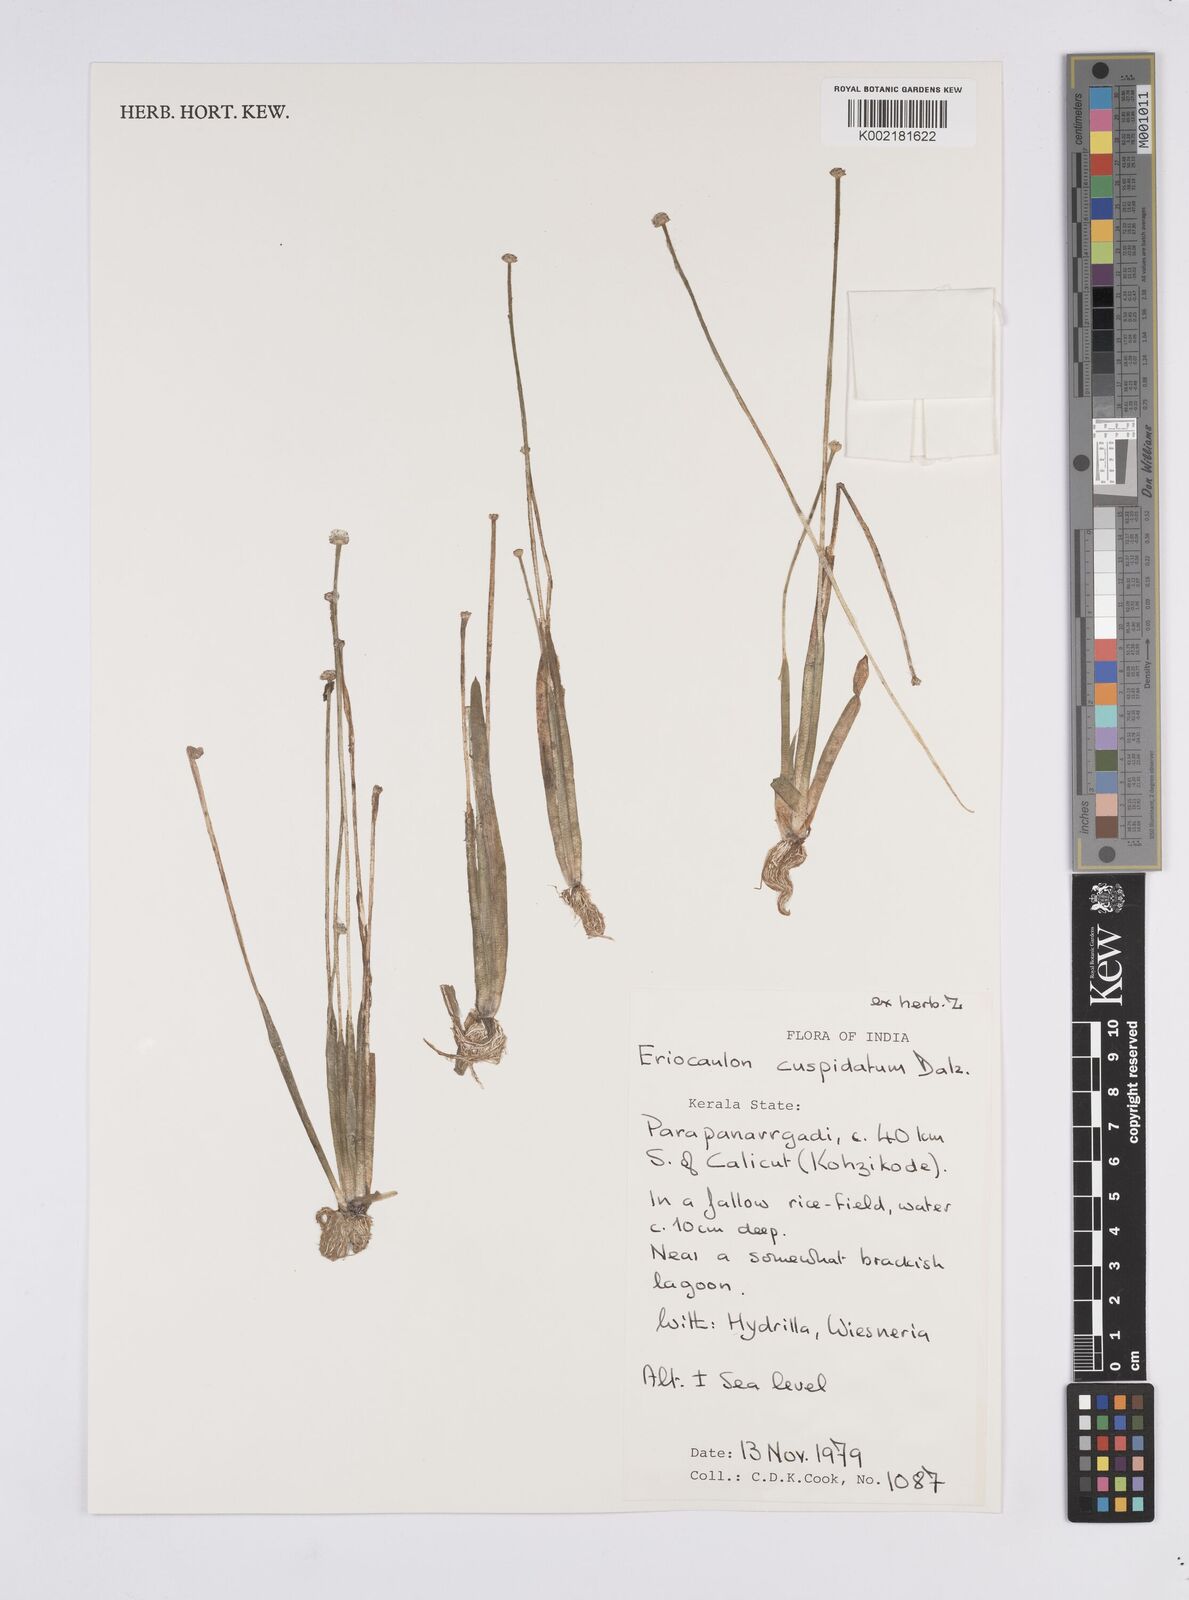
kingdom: Plantae
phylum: Tracheophyta
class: Liliopsida
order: Poales
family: Eriocaulaceae
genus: Eriocaulon
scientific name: Eriocaulon cuspidatum
